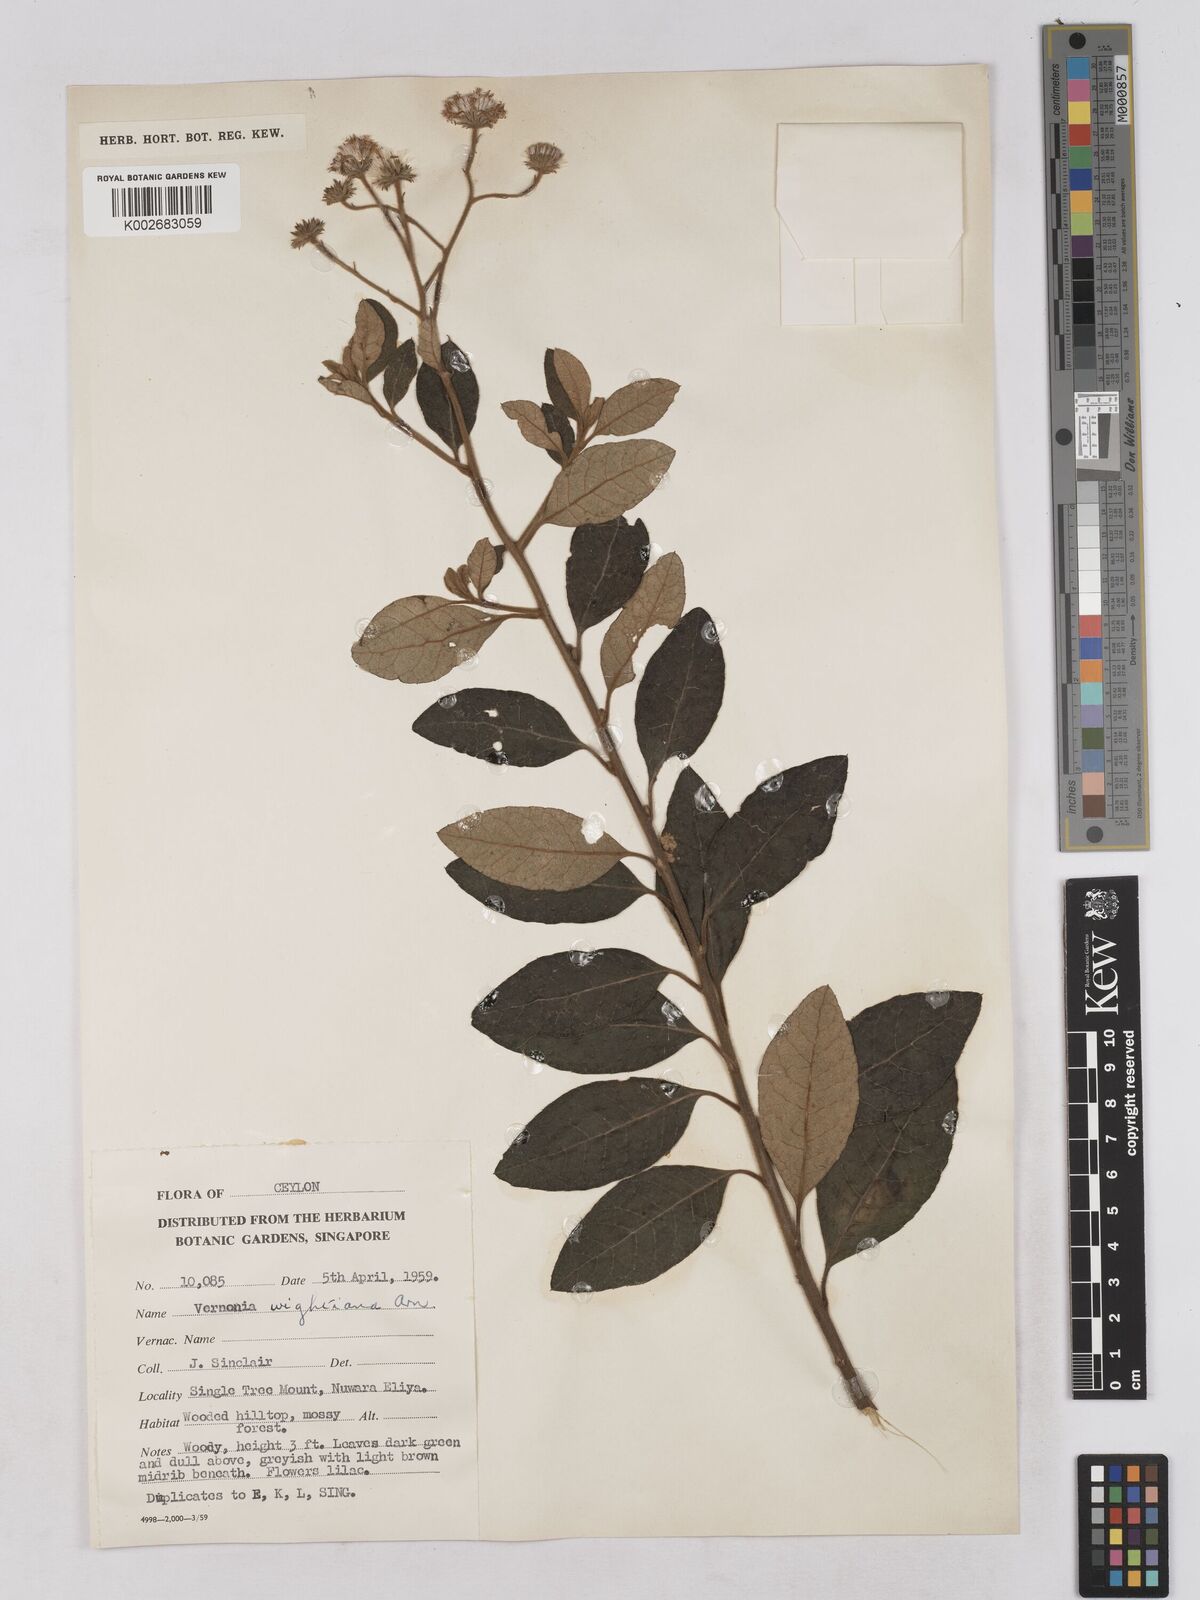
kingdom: Plantae
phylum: Tracheophyta
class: Magnoliopsida
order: Asterales
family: Asteraceae
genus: Uniyala
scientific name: Uniyala wightiana
